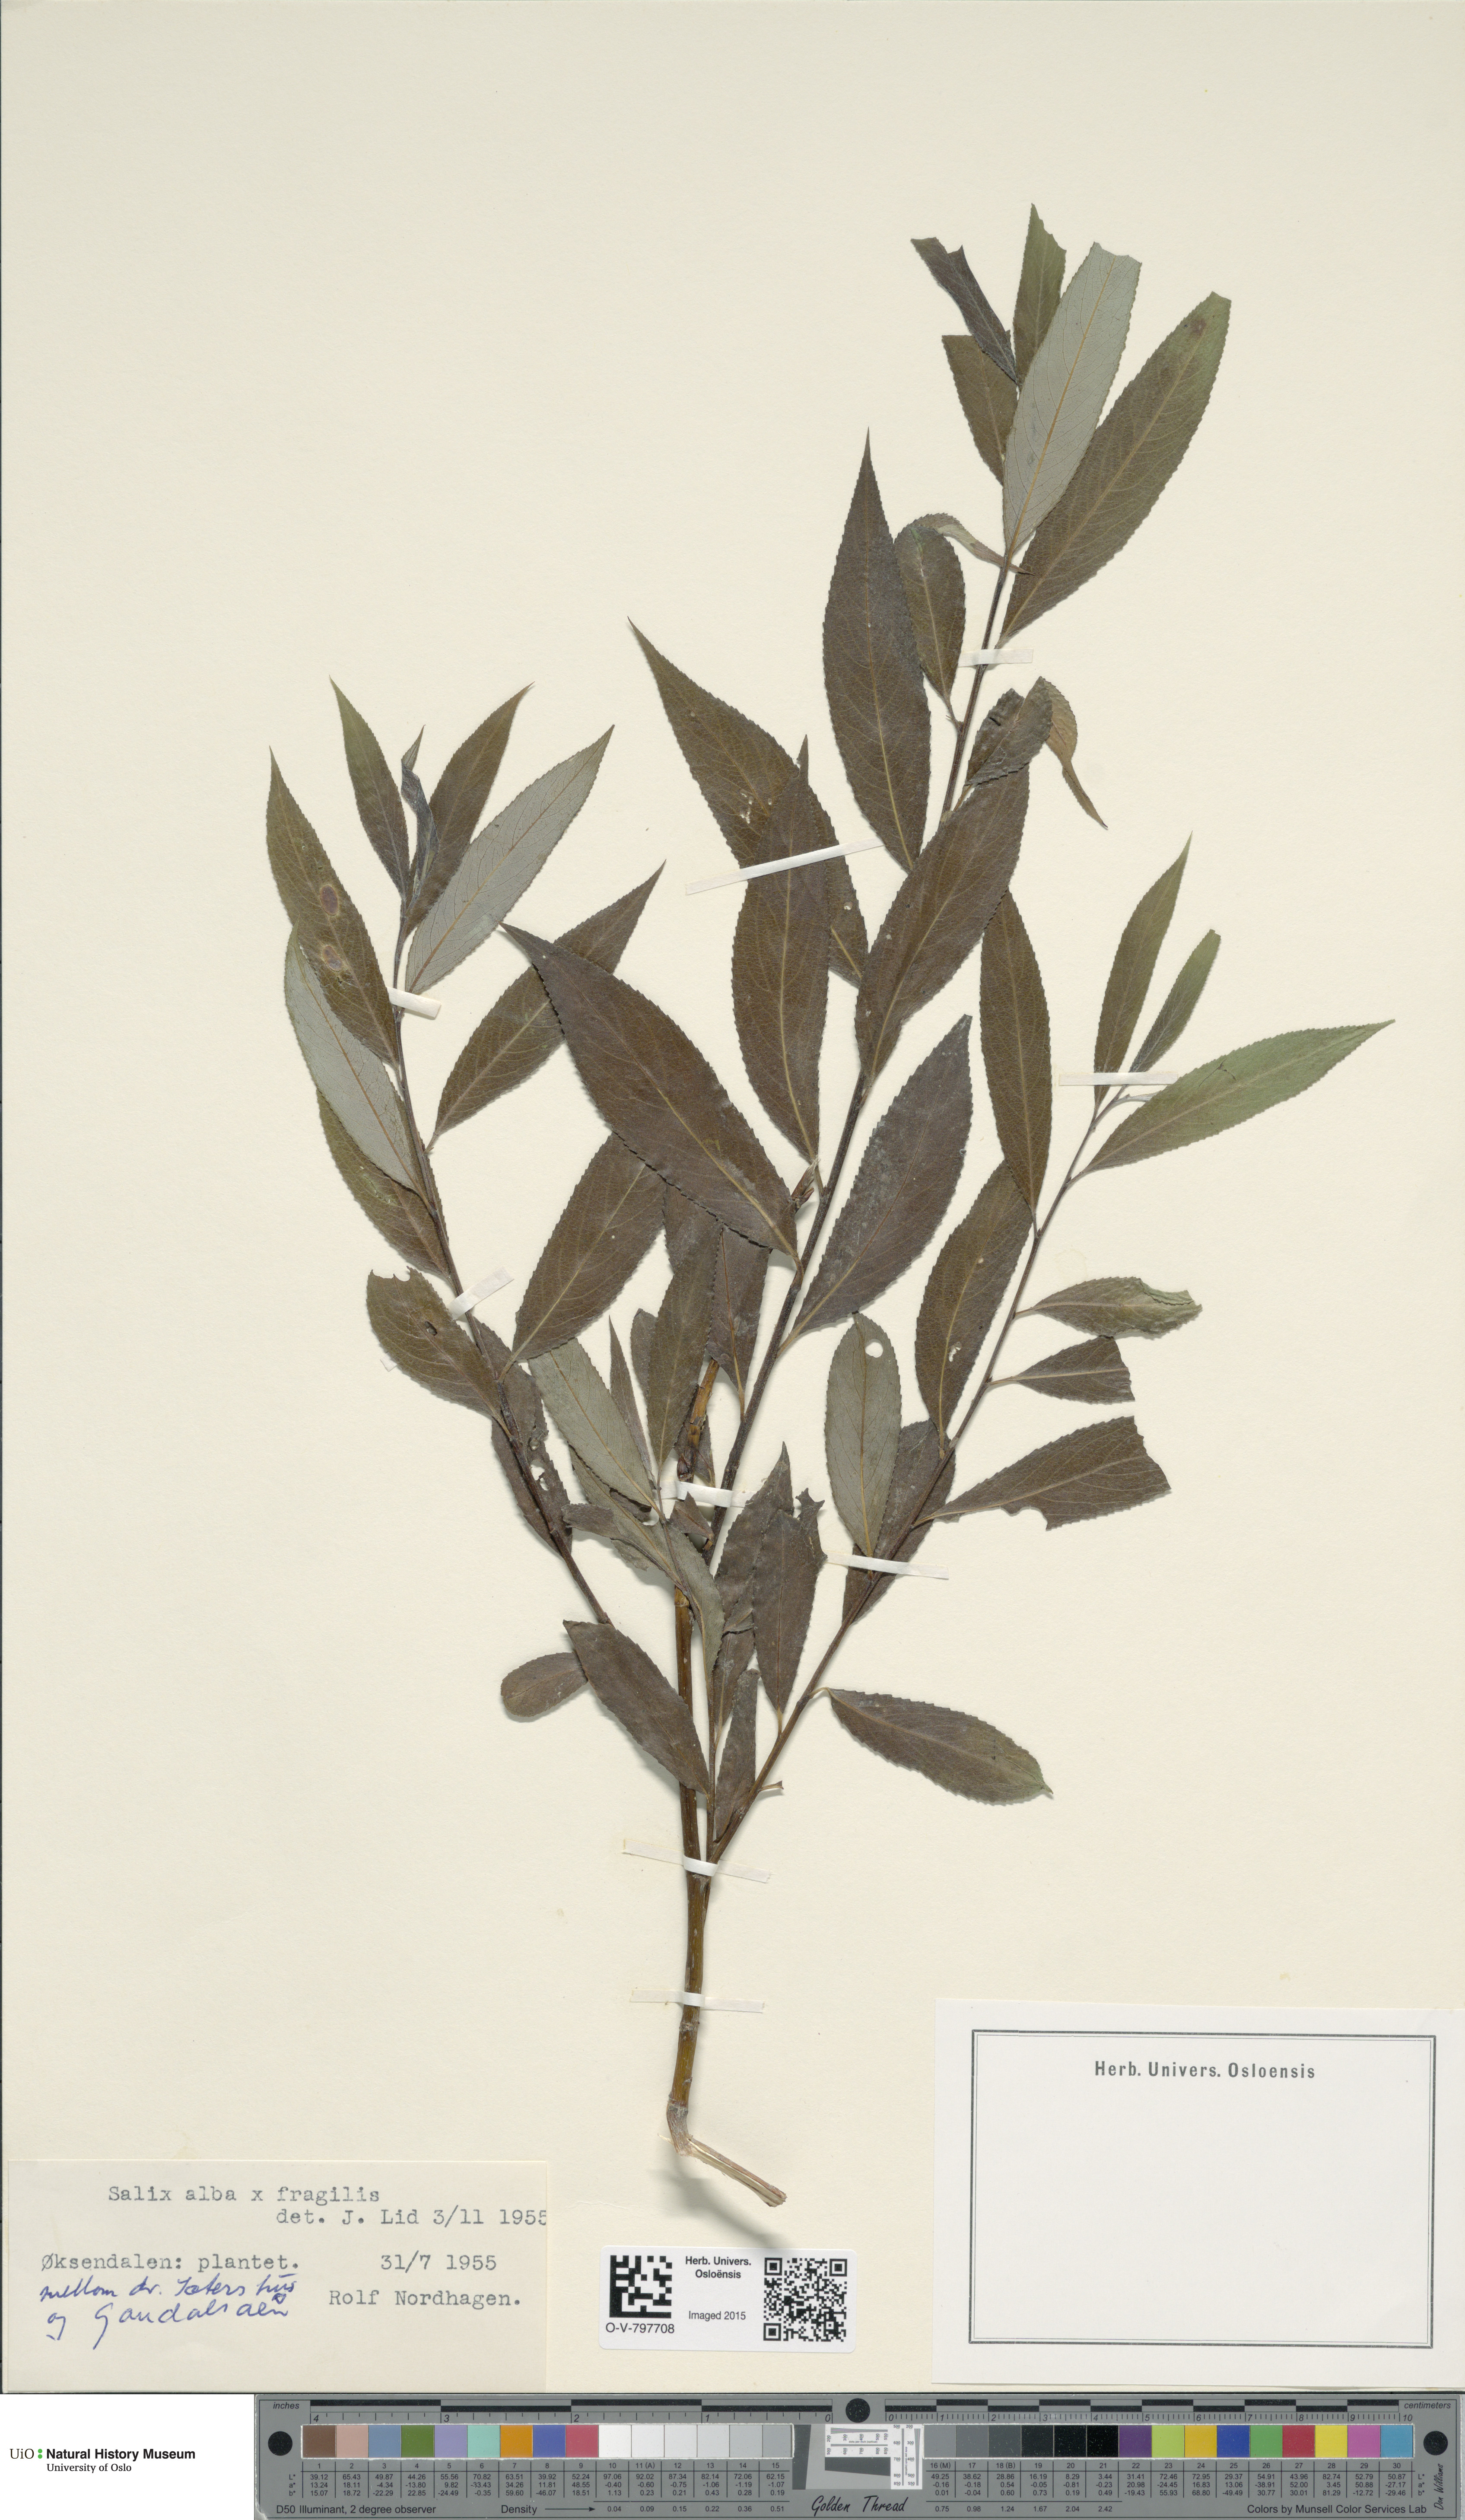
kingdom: Plantae
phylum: Tracheophyta
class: Magnoliopsida
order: Malpighiales
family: Salicaceae
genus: Salix
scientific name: Salix
